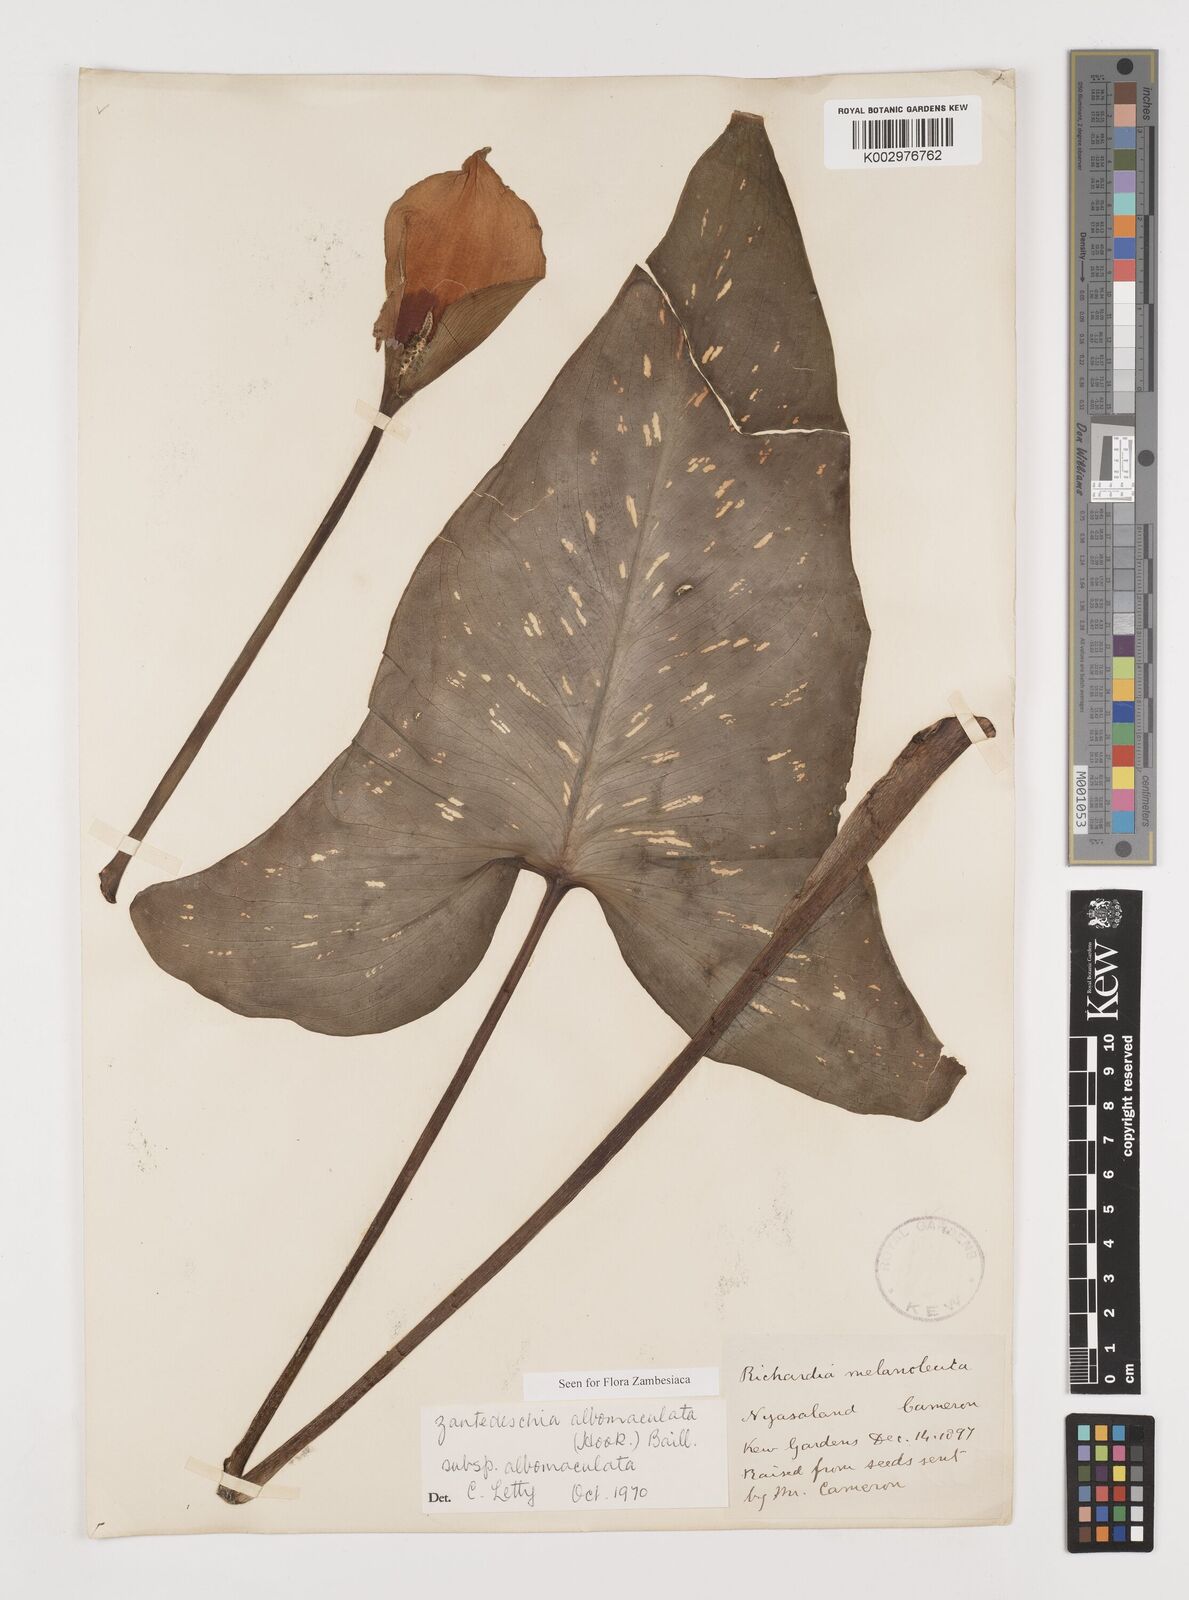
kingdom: Plantae
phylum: Tracheophyta
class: Liliopsida
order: Alismatales
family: Araceae
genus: Zantedeschia
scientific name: Zantedeschia albomaculata
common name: Spotted calla lily
